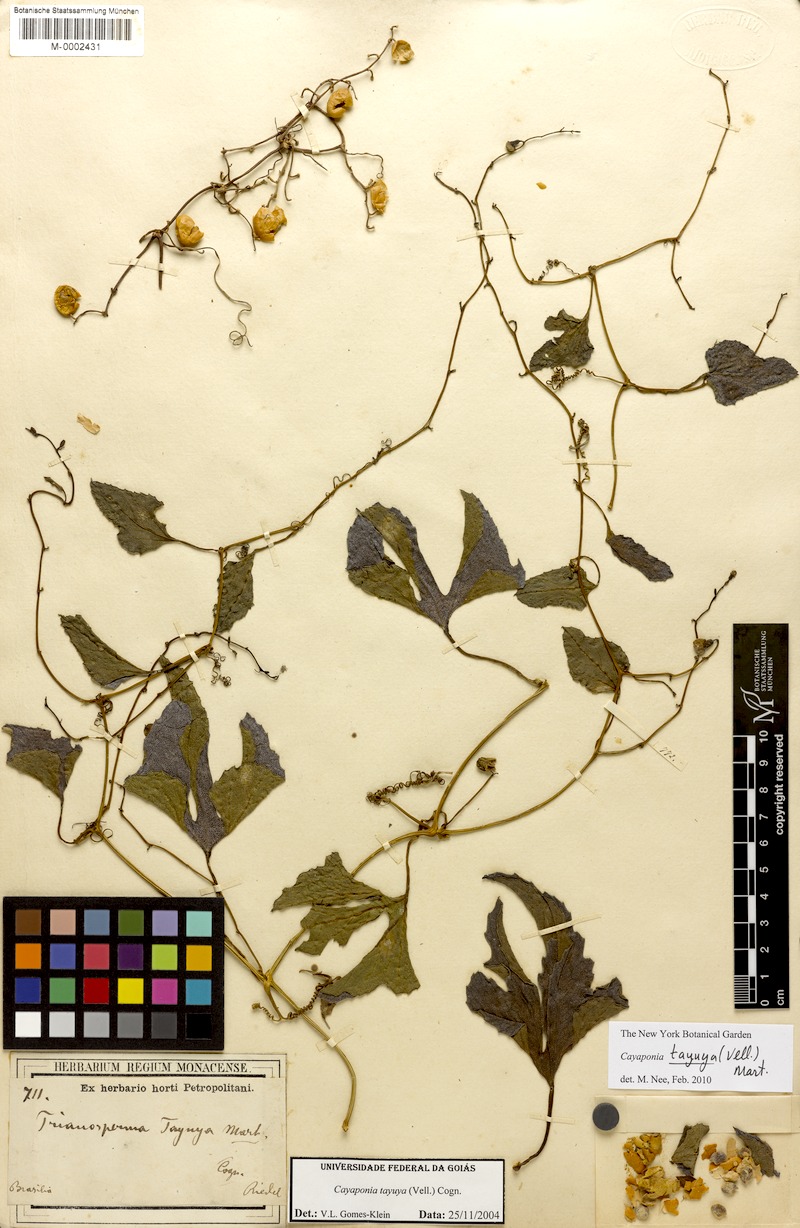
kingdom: Plantae
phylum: Tracheophyta
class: Magnoliopsida
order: Cucurbitales
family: Cucurbitaceae
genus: Cayaponia
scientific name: Cayaponia tayuya
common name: Tayuya
